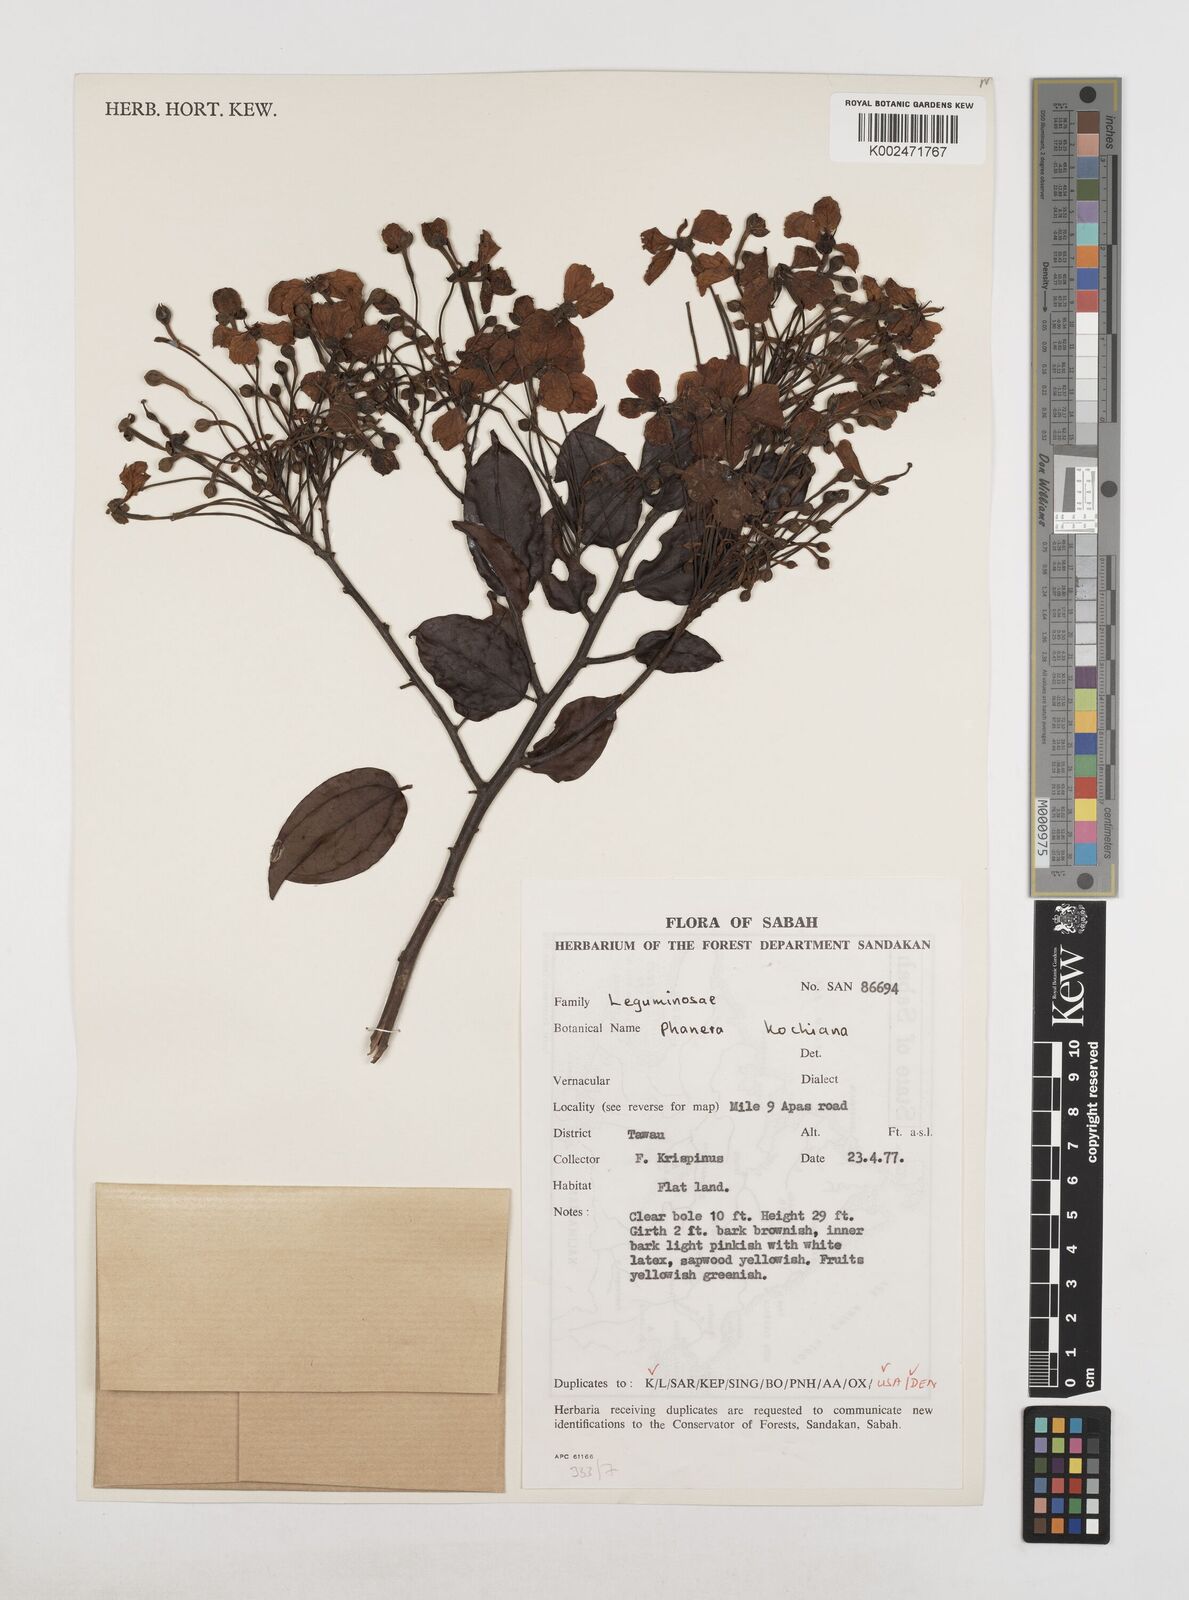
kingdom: Plantae
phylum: Tracheophyta
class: Magnoliopsida
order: Fabales
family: Fabaceae
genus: Phanera
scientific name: Phanera kockiana
